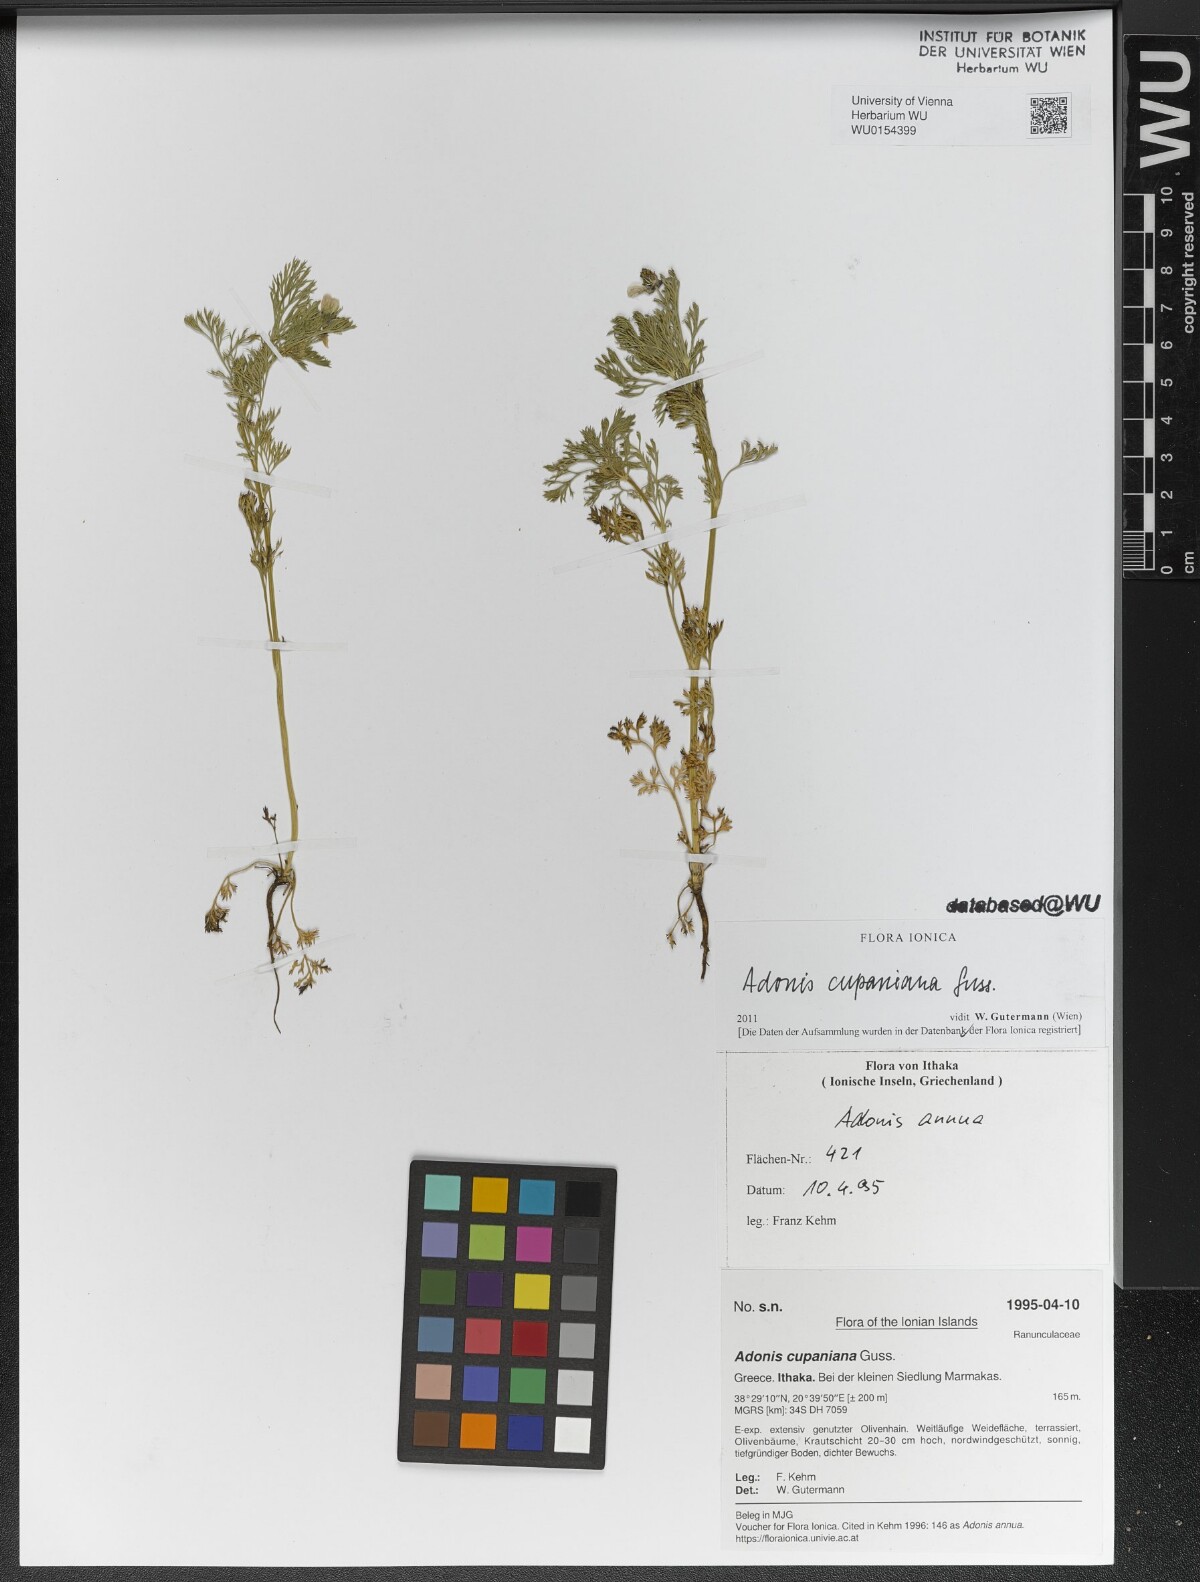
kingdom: Plantae
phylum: Tracheophyta
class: Magnoliopsida
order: Ranunculales
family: Ranunculaceae
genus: Adonis
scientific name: Adonis annua
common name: Pheasant's-eye
